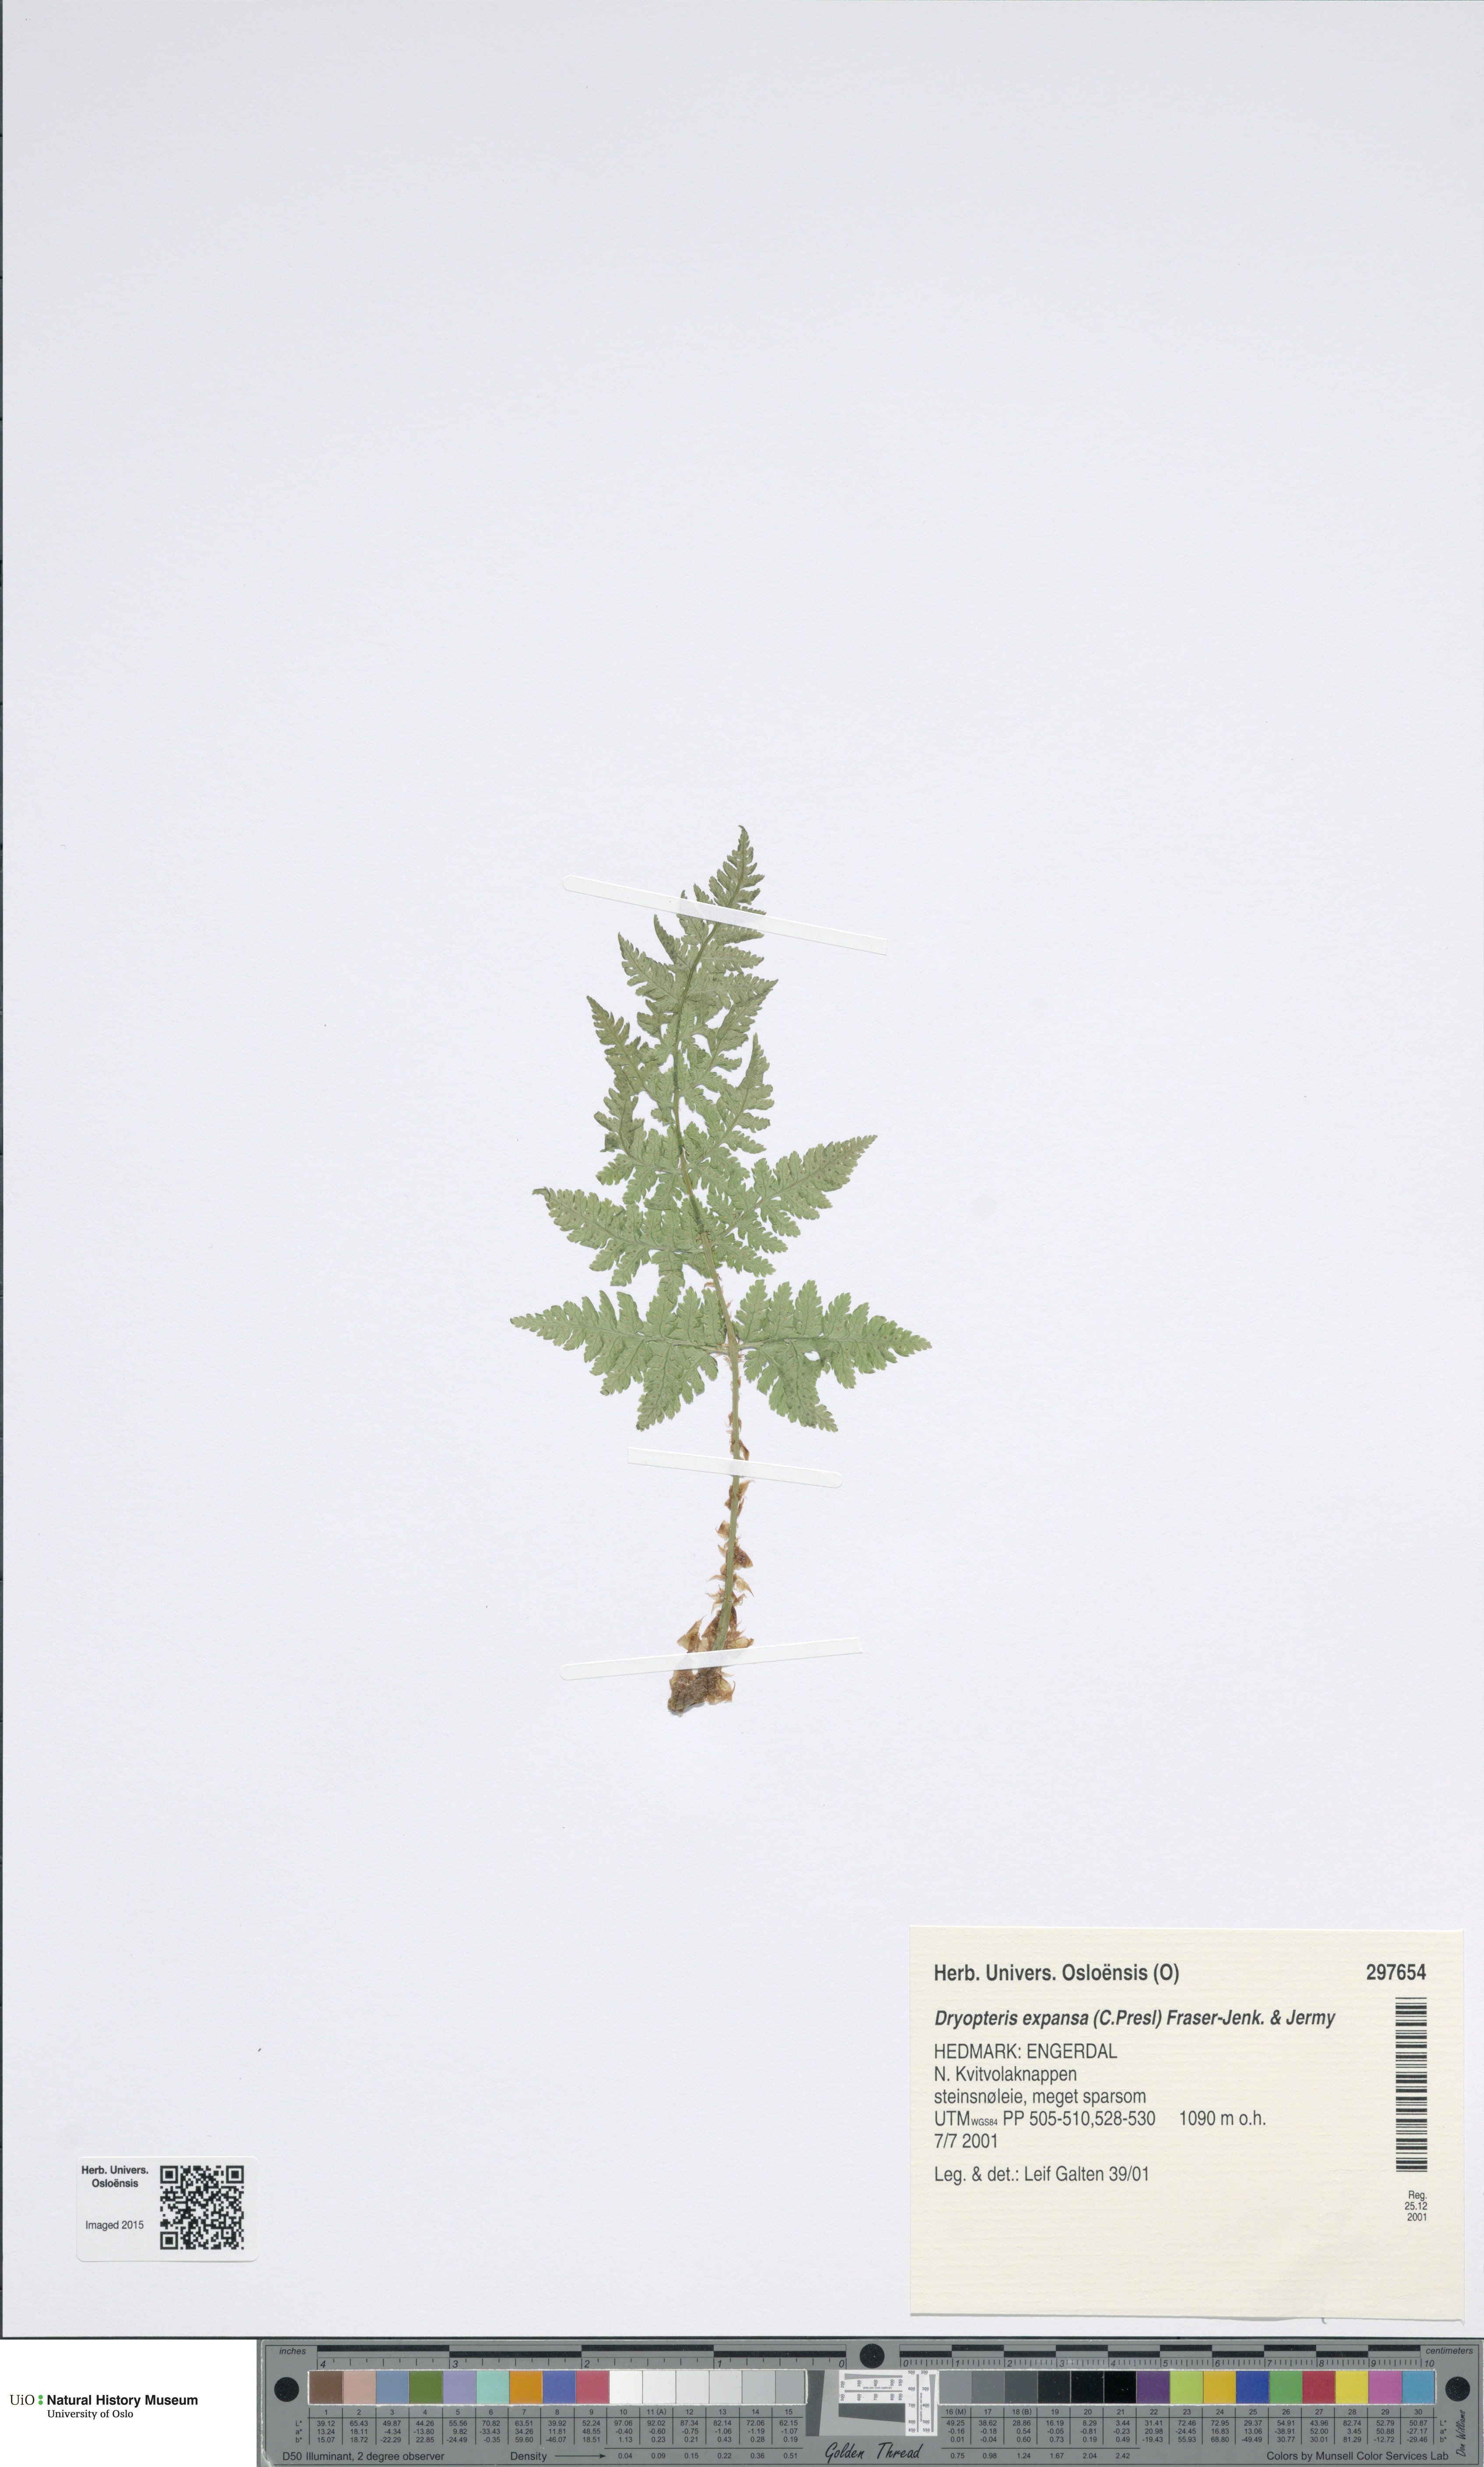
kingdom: Plantae
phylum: Tracheophyta
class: Polypodiopsida
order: Polypodiales
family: Dryopteridaceae
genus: Dryopteris
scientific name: Dryopteris expansa
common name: Northern buckler fern
